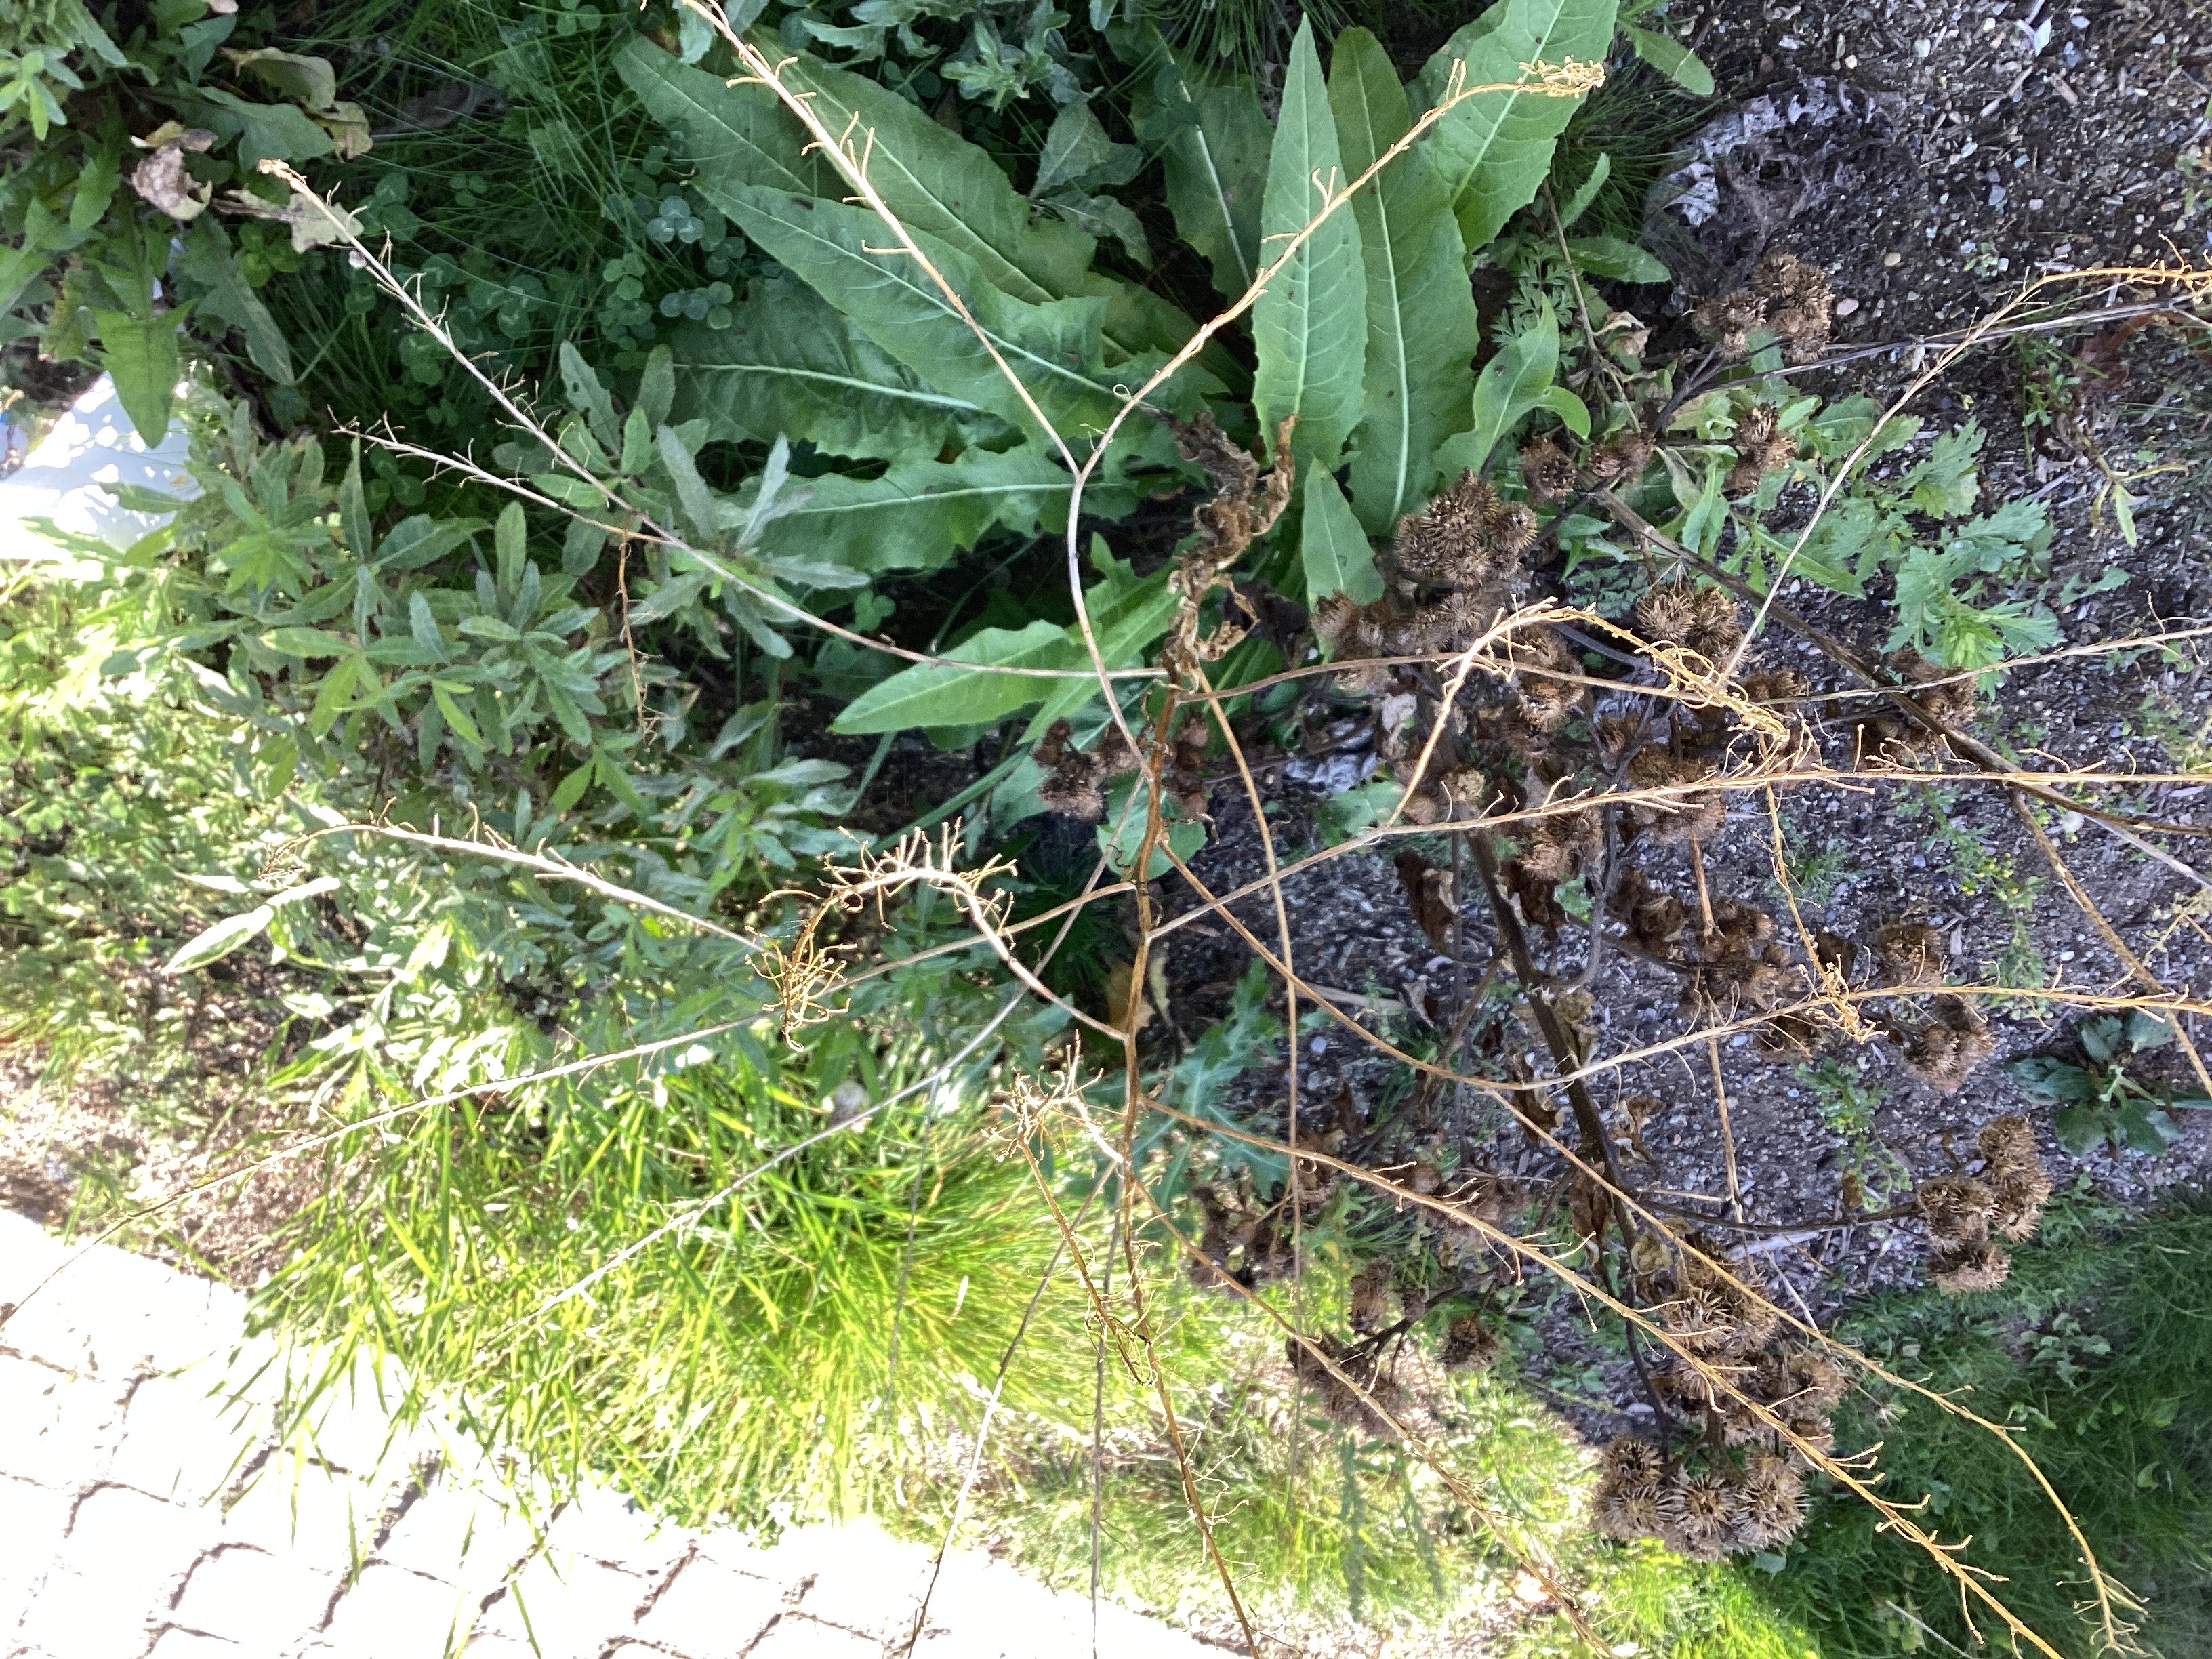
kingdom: Plantae
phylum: Tracheophyta
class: Magnoliopsida
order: Brassicales
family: Brassicaceae
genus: Bunias
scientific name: Bunias orientalis
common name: russekål
